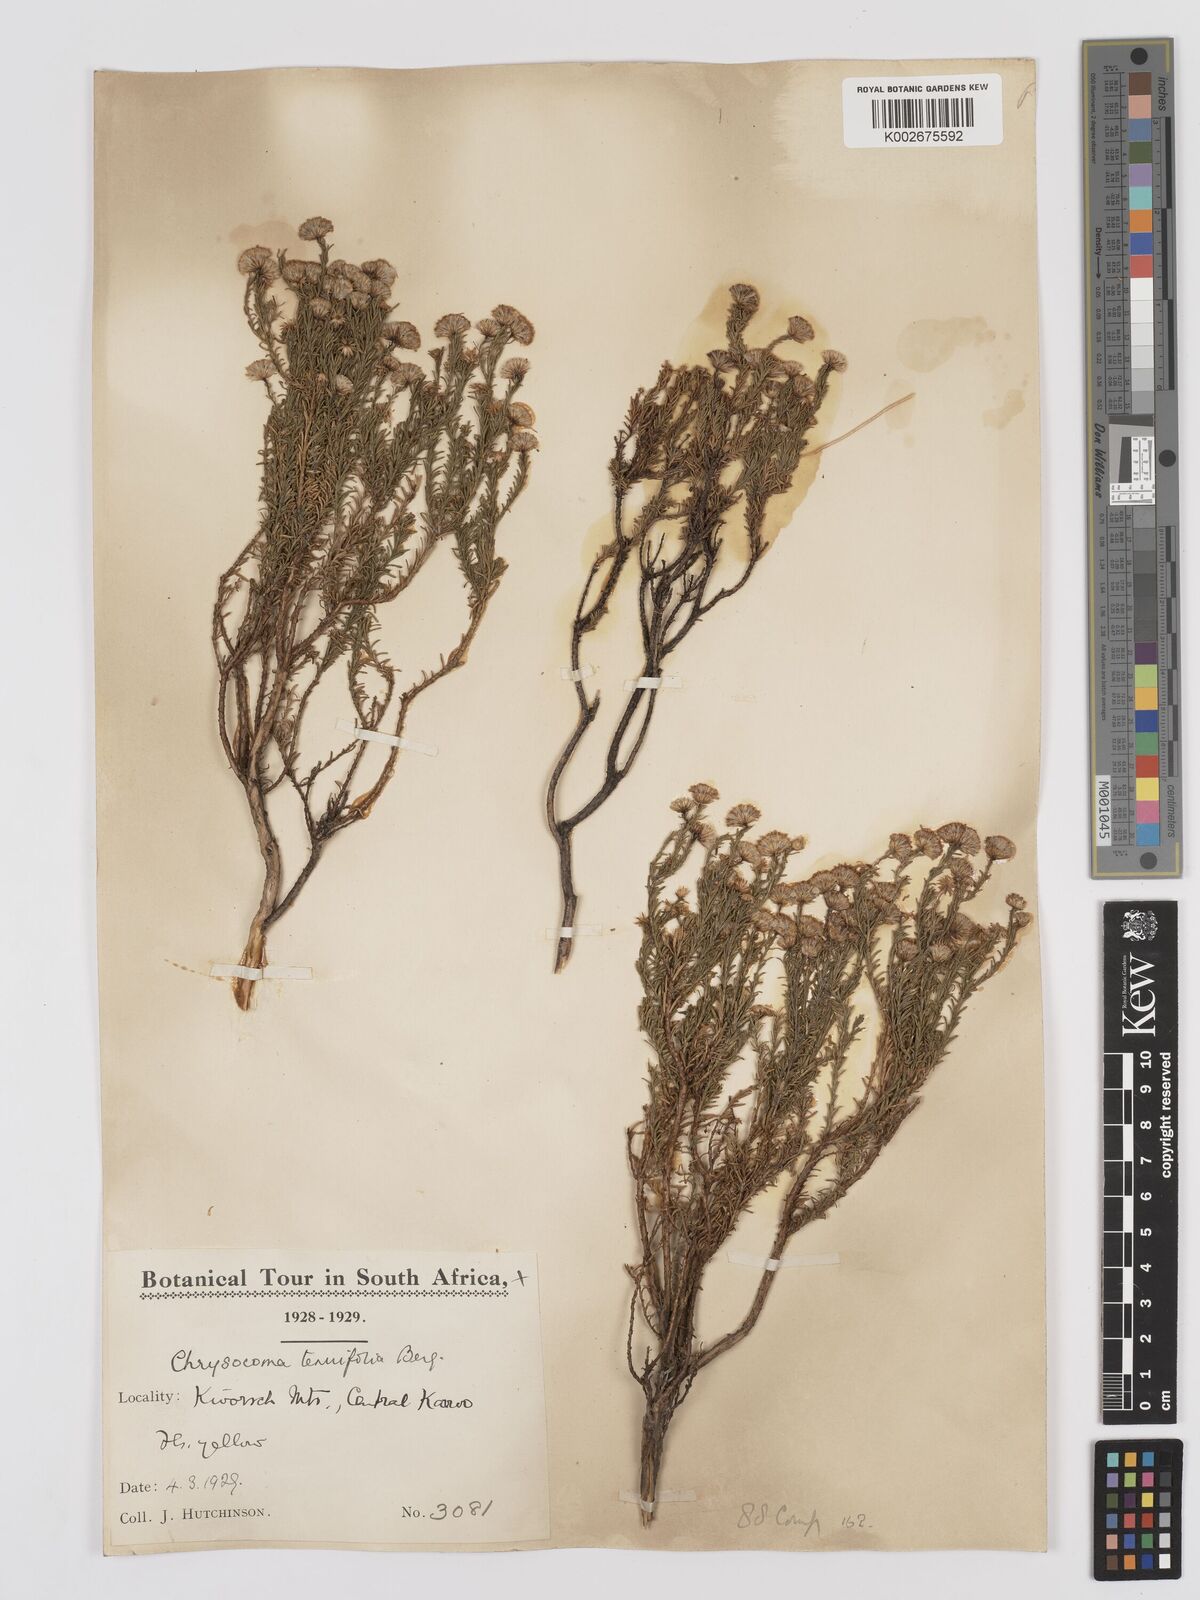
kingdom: Plantae
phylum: Tracheophyta
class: Magnoliopsida
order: Asterales
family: Asteraceae
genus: Chrysocoma
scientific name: Chrysocoma ciliata
